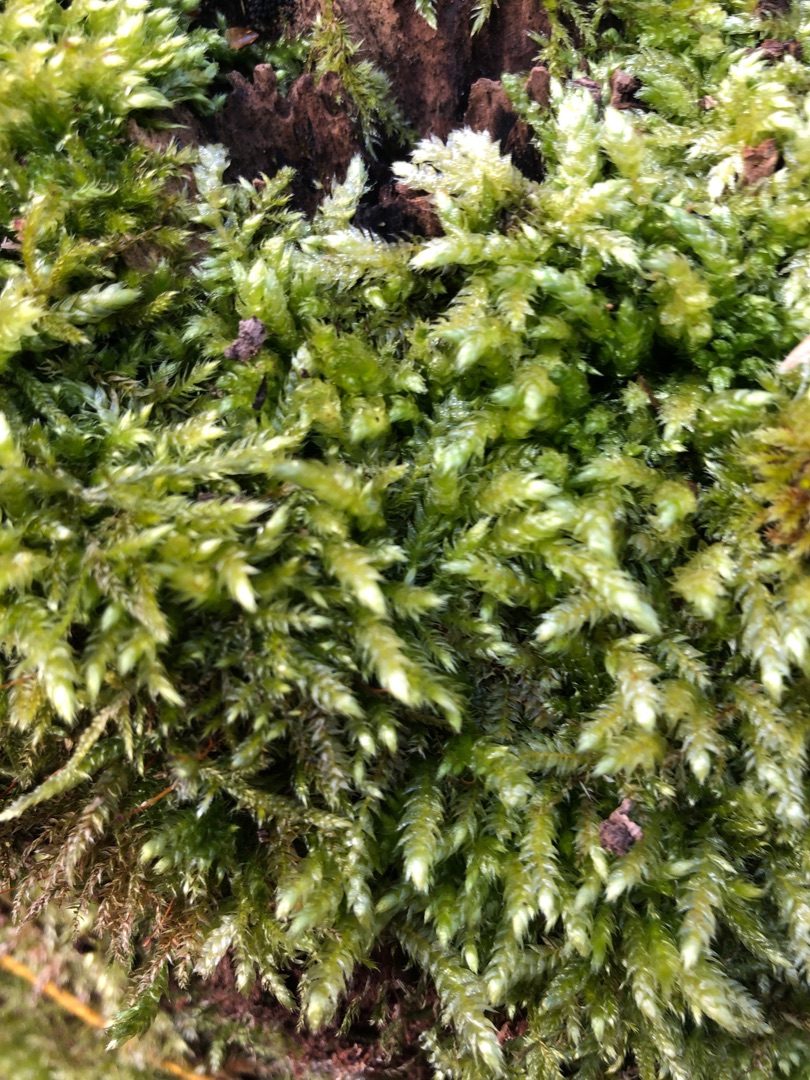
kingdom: Plantae
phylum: Bryophyta
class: Bryopsida
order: Hypnales
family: Brachytheciaceae
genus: Brachythecium
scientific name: Brachythecium rutabulum
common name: Almindelig kortkapsel
